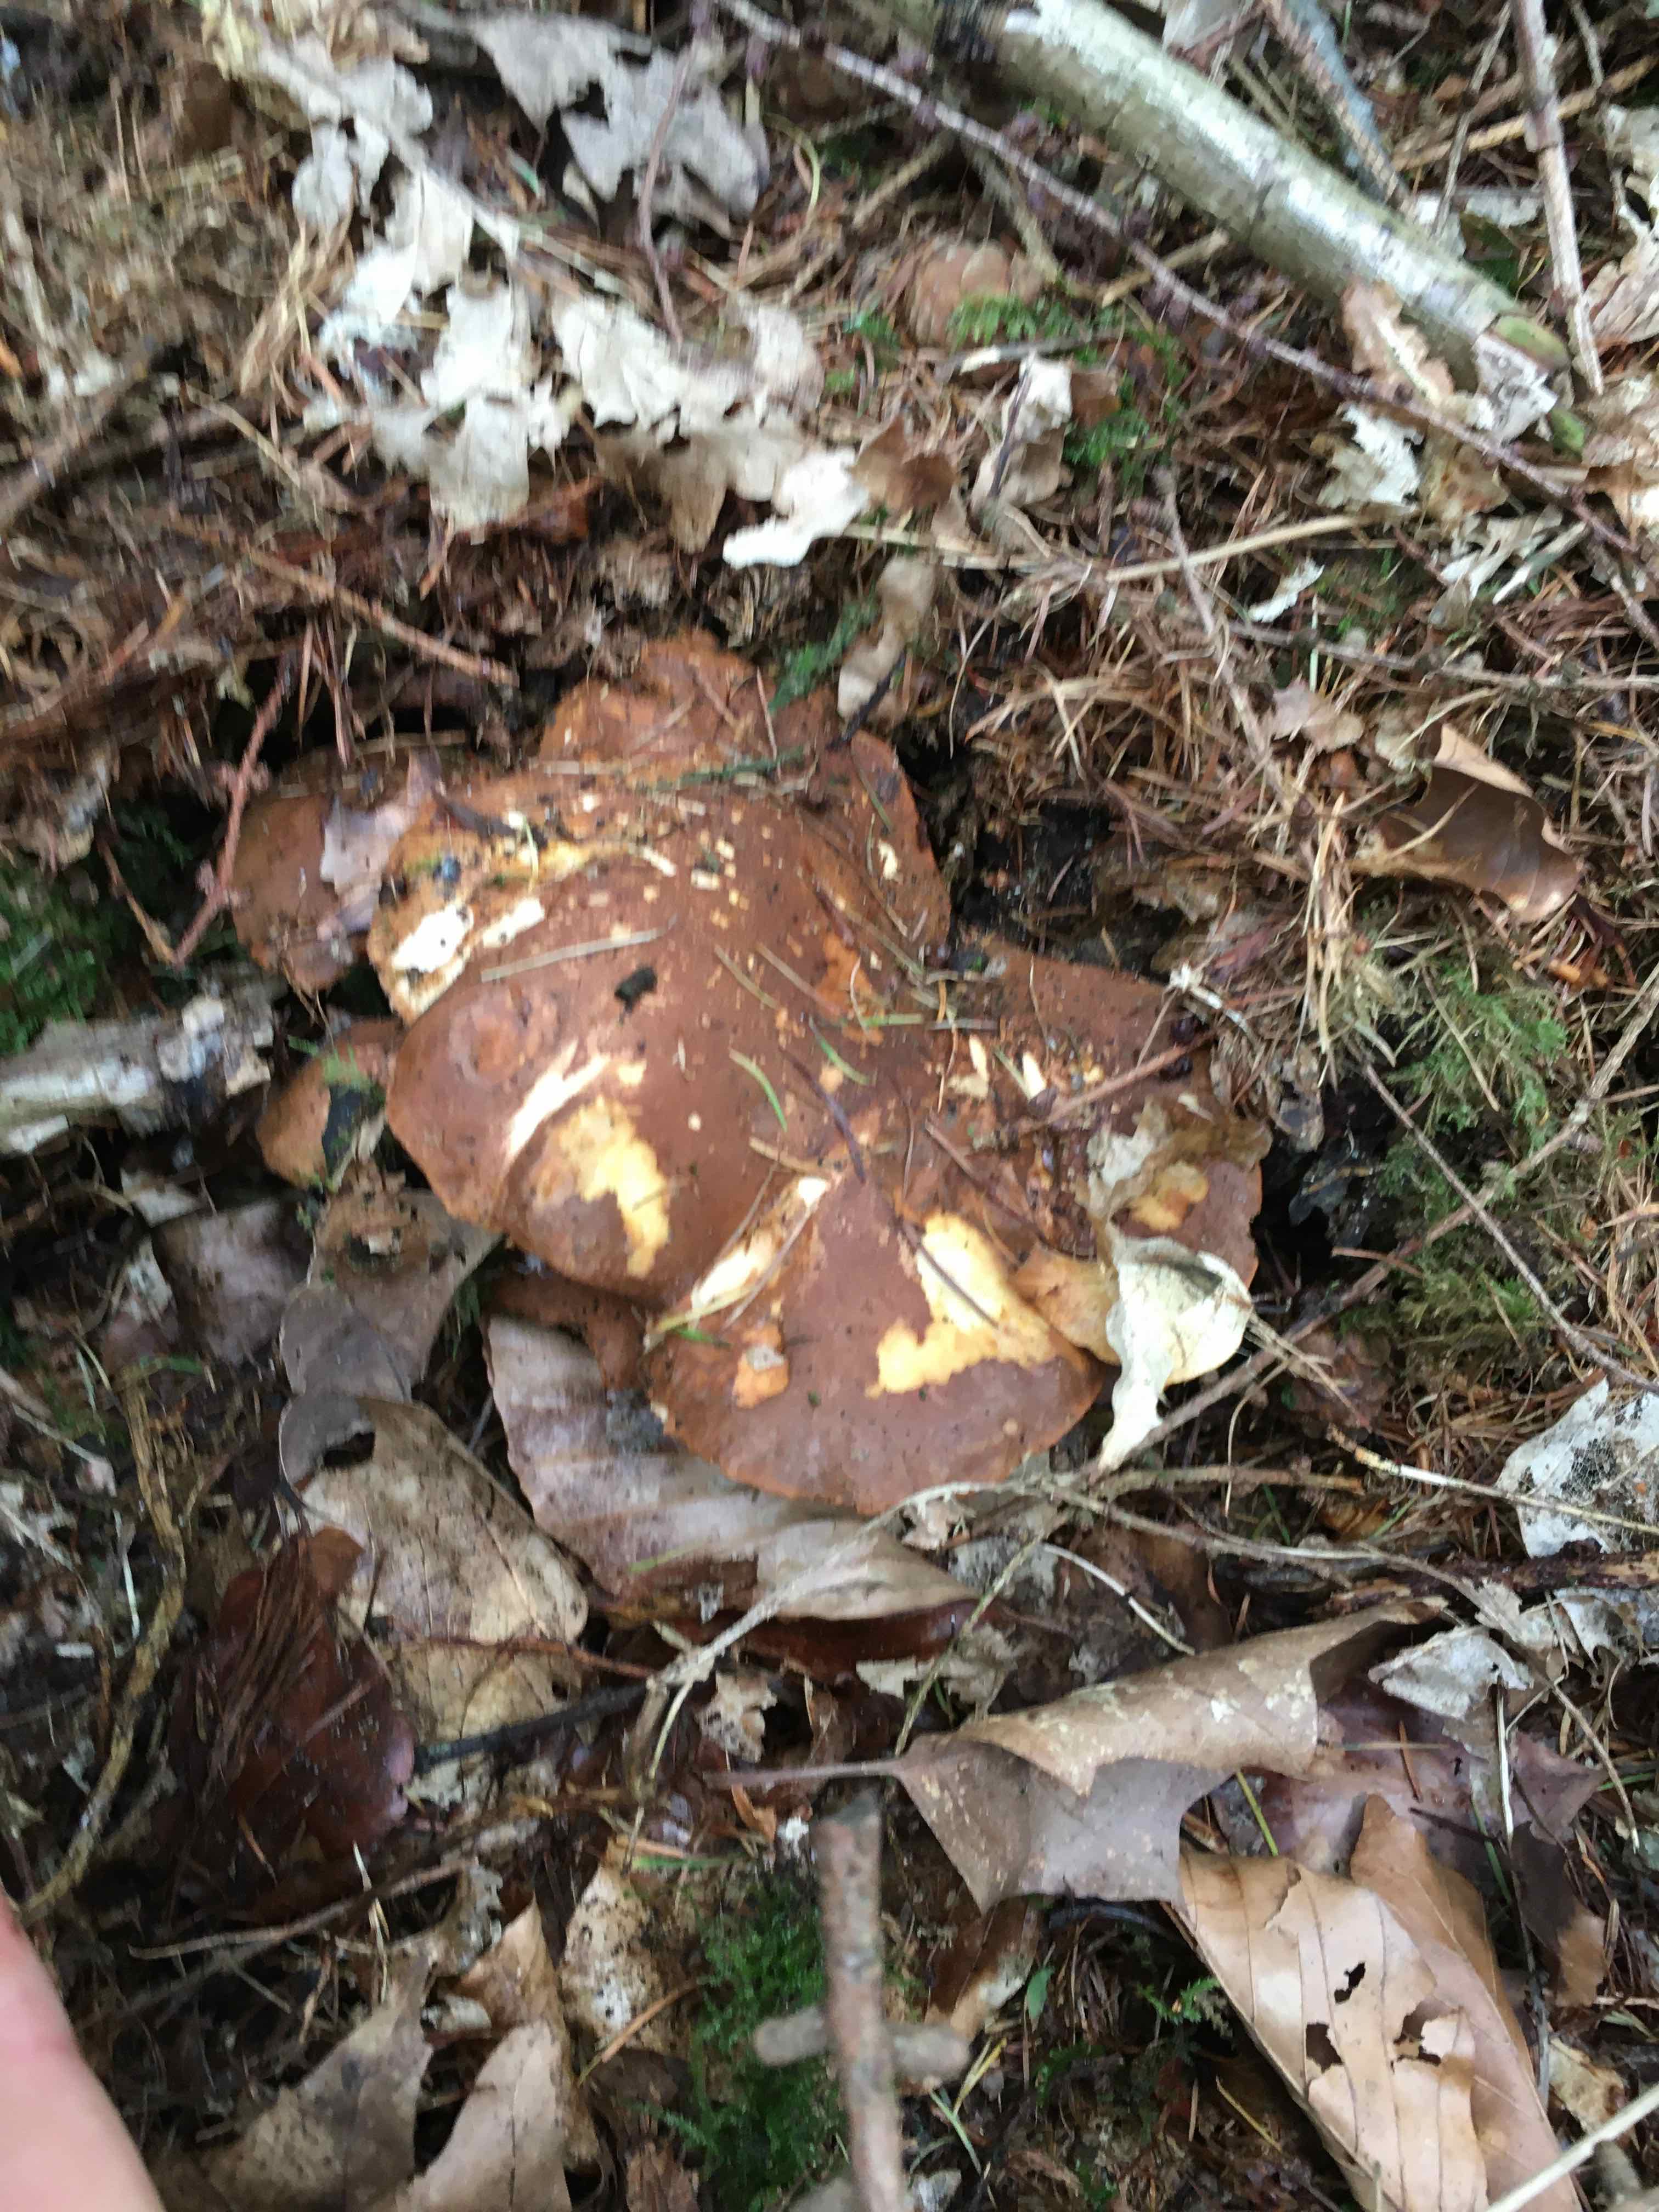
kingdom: Fungi
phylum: Basidiomycota
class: Agaricomycetes
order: Boletales
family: Tapinellaceae
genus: Tapinella
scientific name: Tapinella atrotomentosa
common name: sortfiltet viftesvamp
